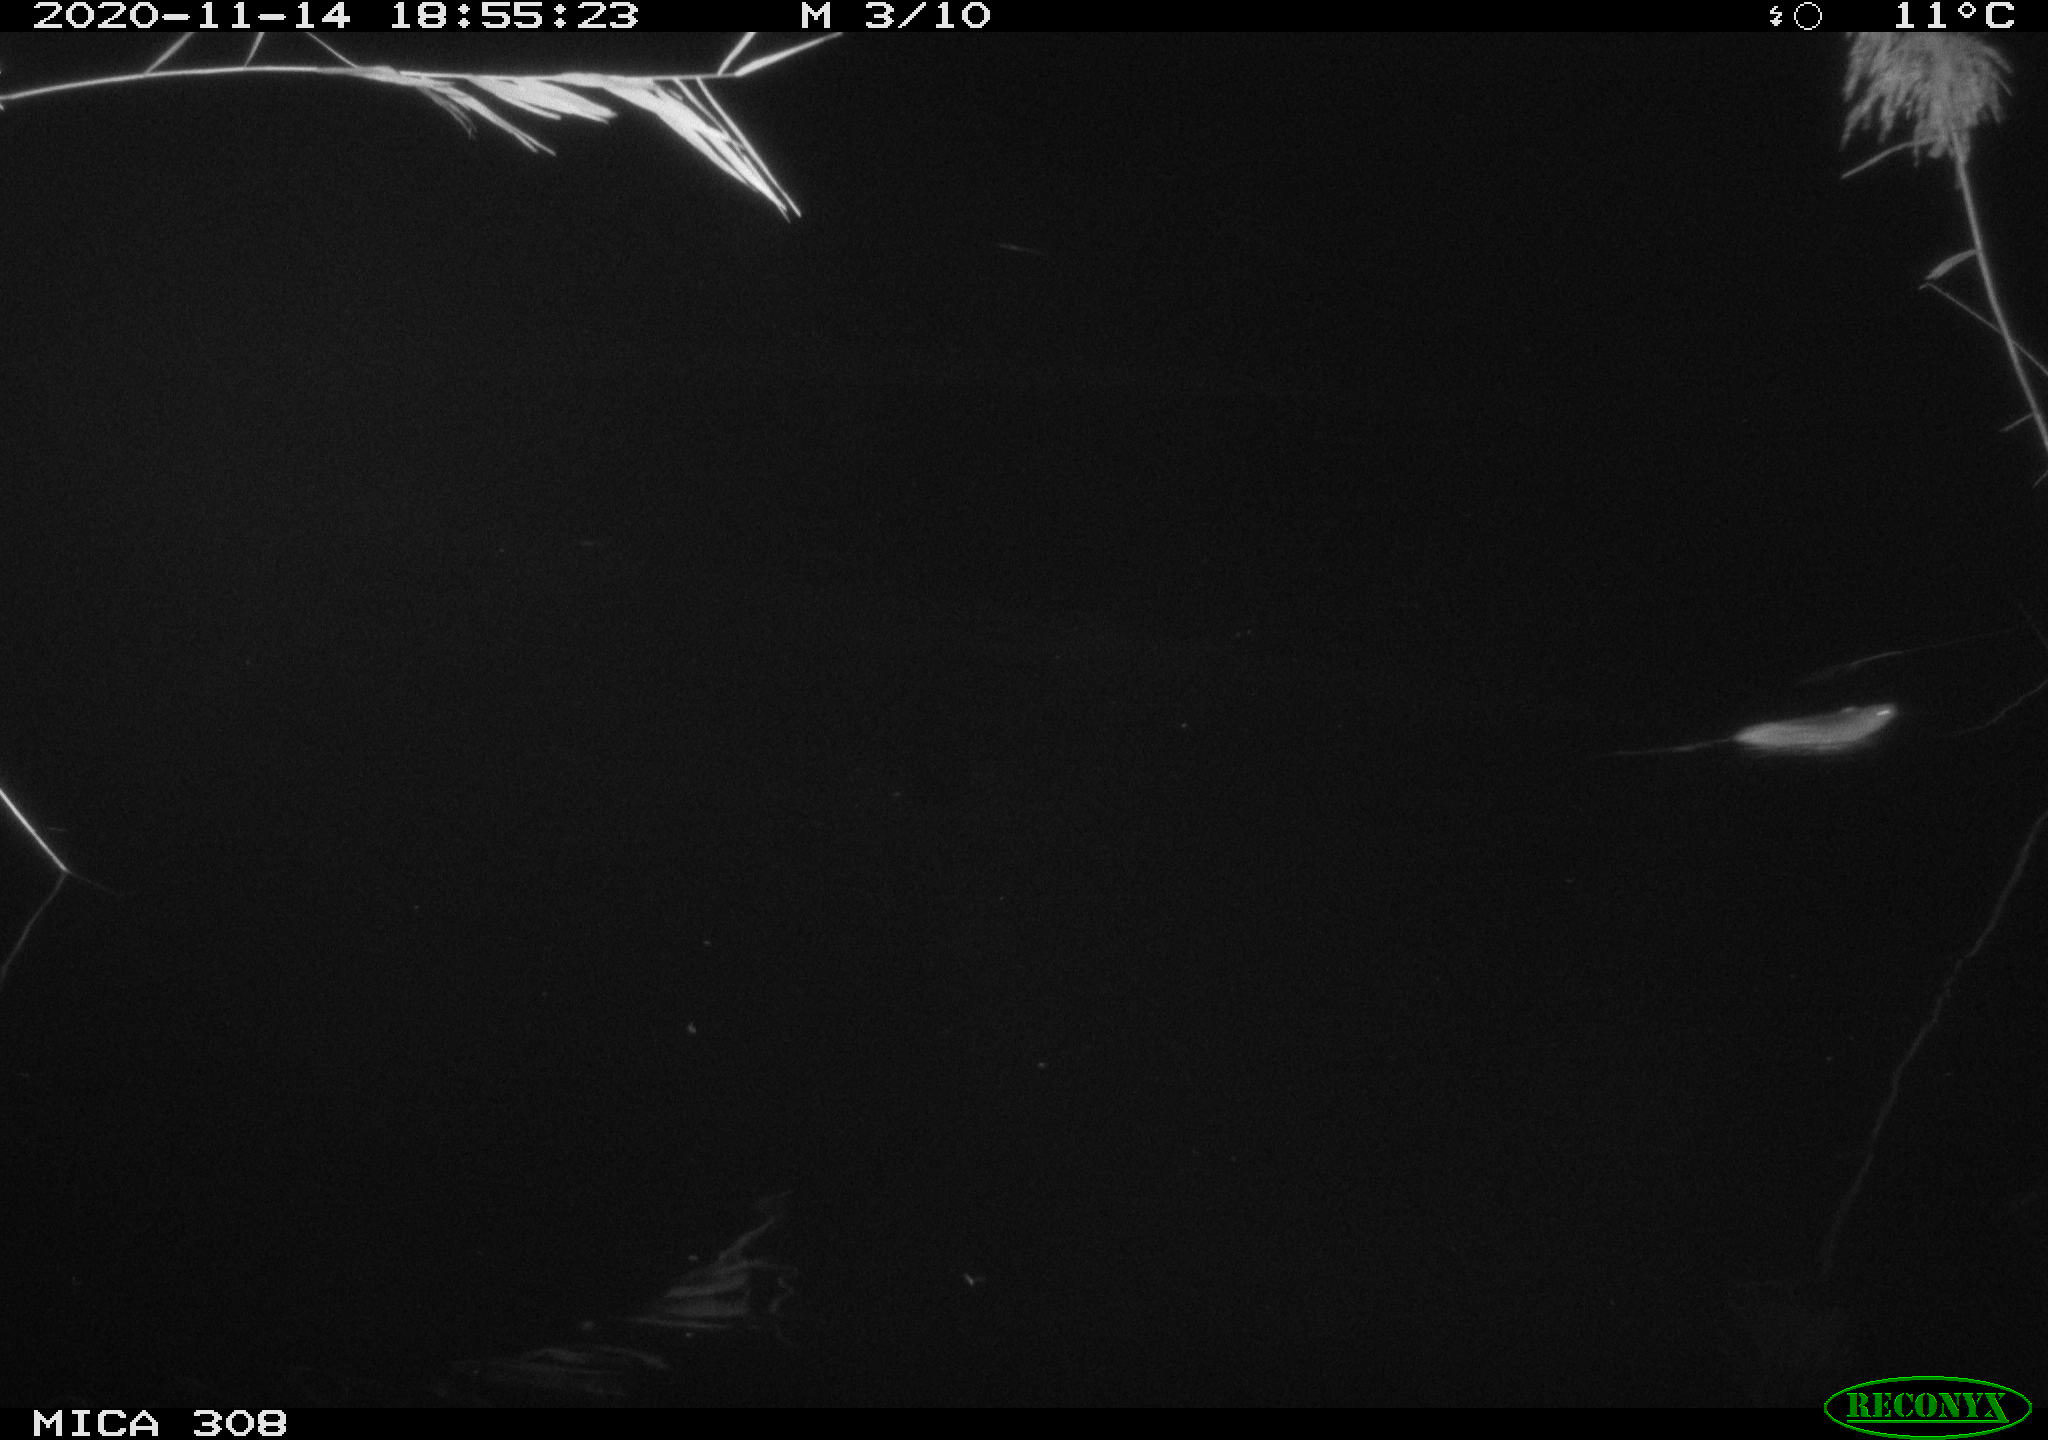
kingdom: Animalia
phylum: Chordata
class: Mammalia
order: Rodentia
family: Muridae
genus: Rattus
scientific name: Rattus norvegicus
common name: Brown rat
